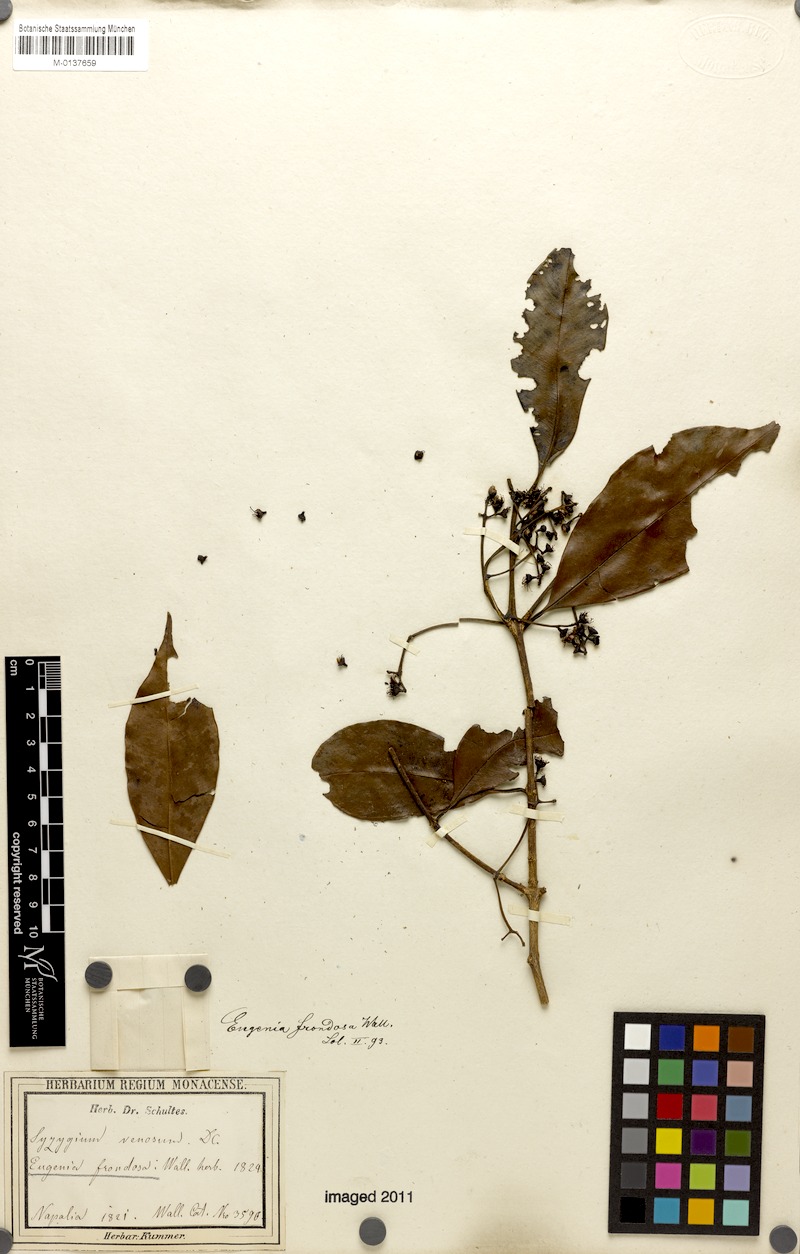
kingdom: Plantae
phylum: Tracheophyta
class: Magnoliopsida
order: Myrtales
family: Myrtaceae
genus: Syzygium
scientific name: Syzygium venosum
